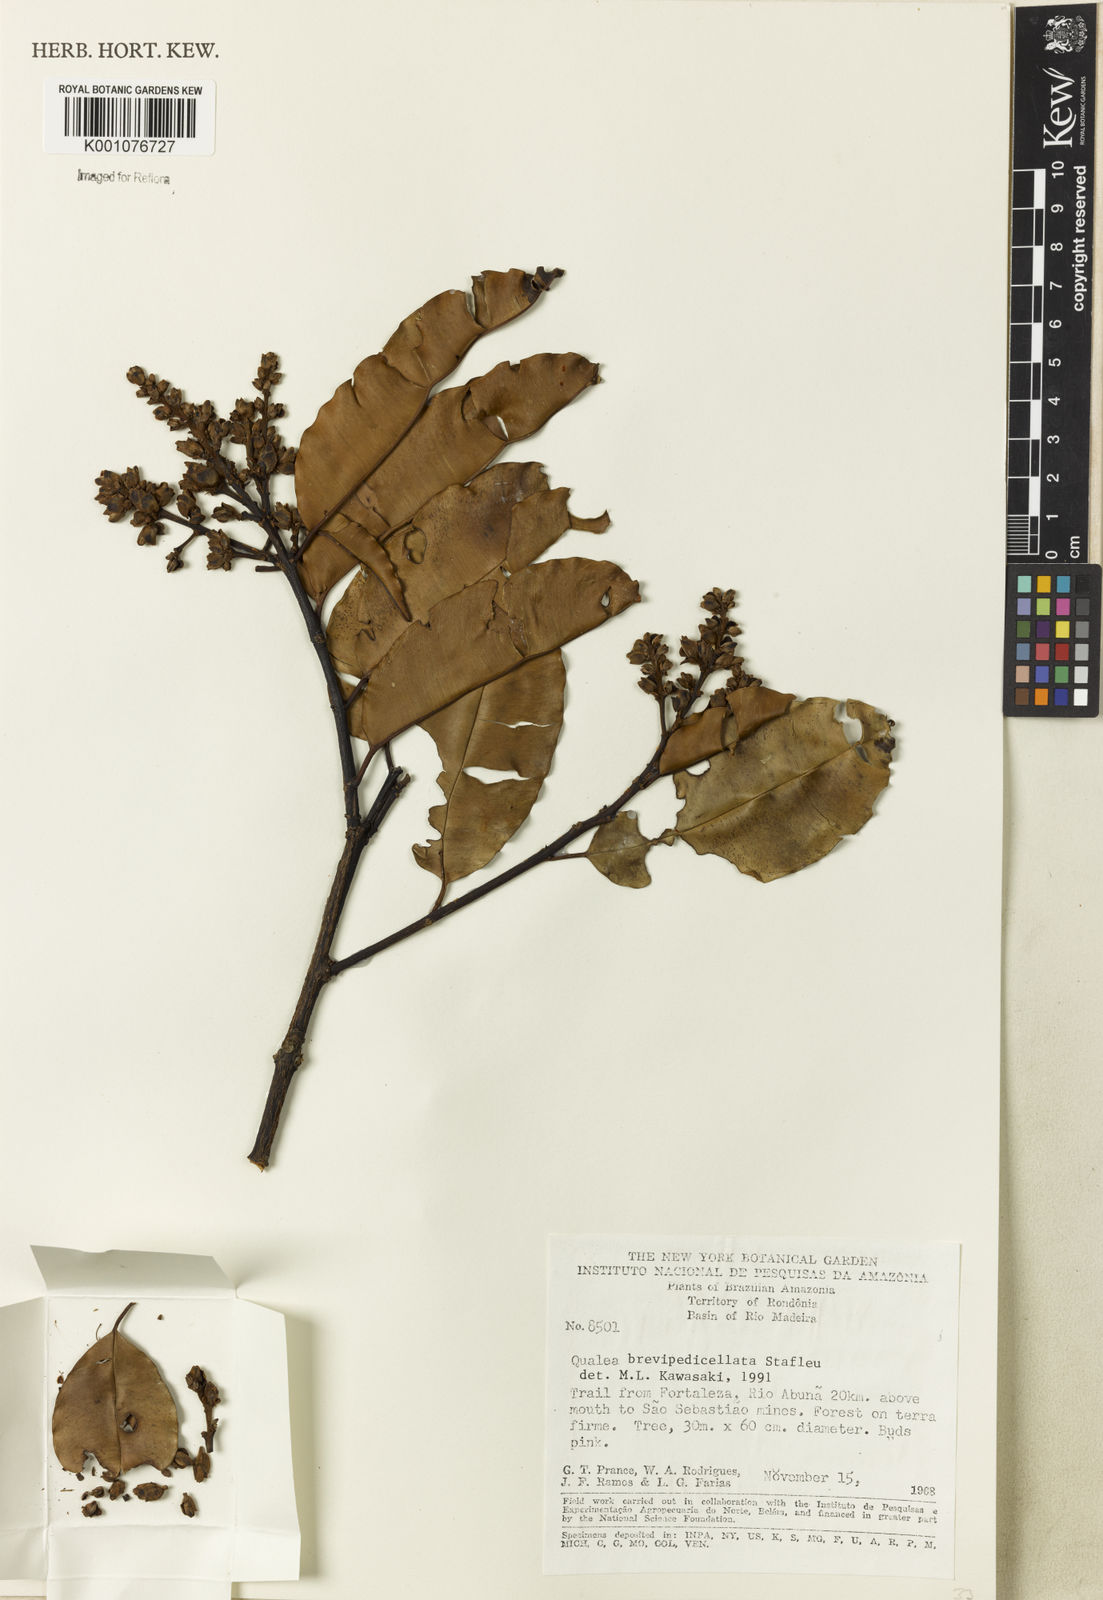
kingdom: Plantae
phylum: Tracheophyta
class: Magnoliopsida
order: Myrtales
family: Vochysiaceae
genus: Qualea
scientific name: Qualea brevipedicellata
